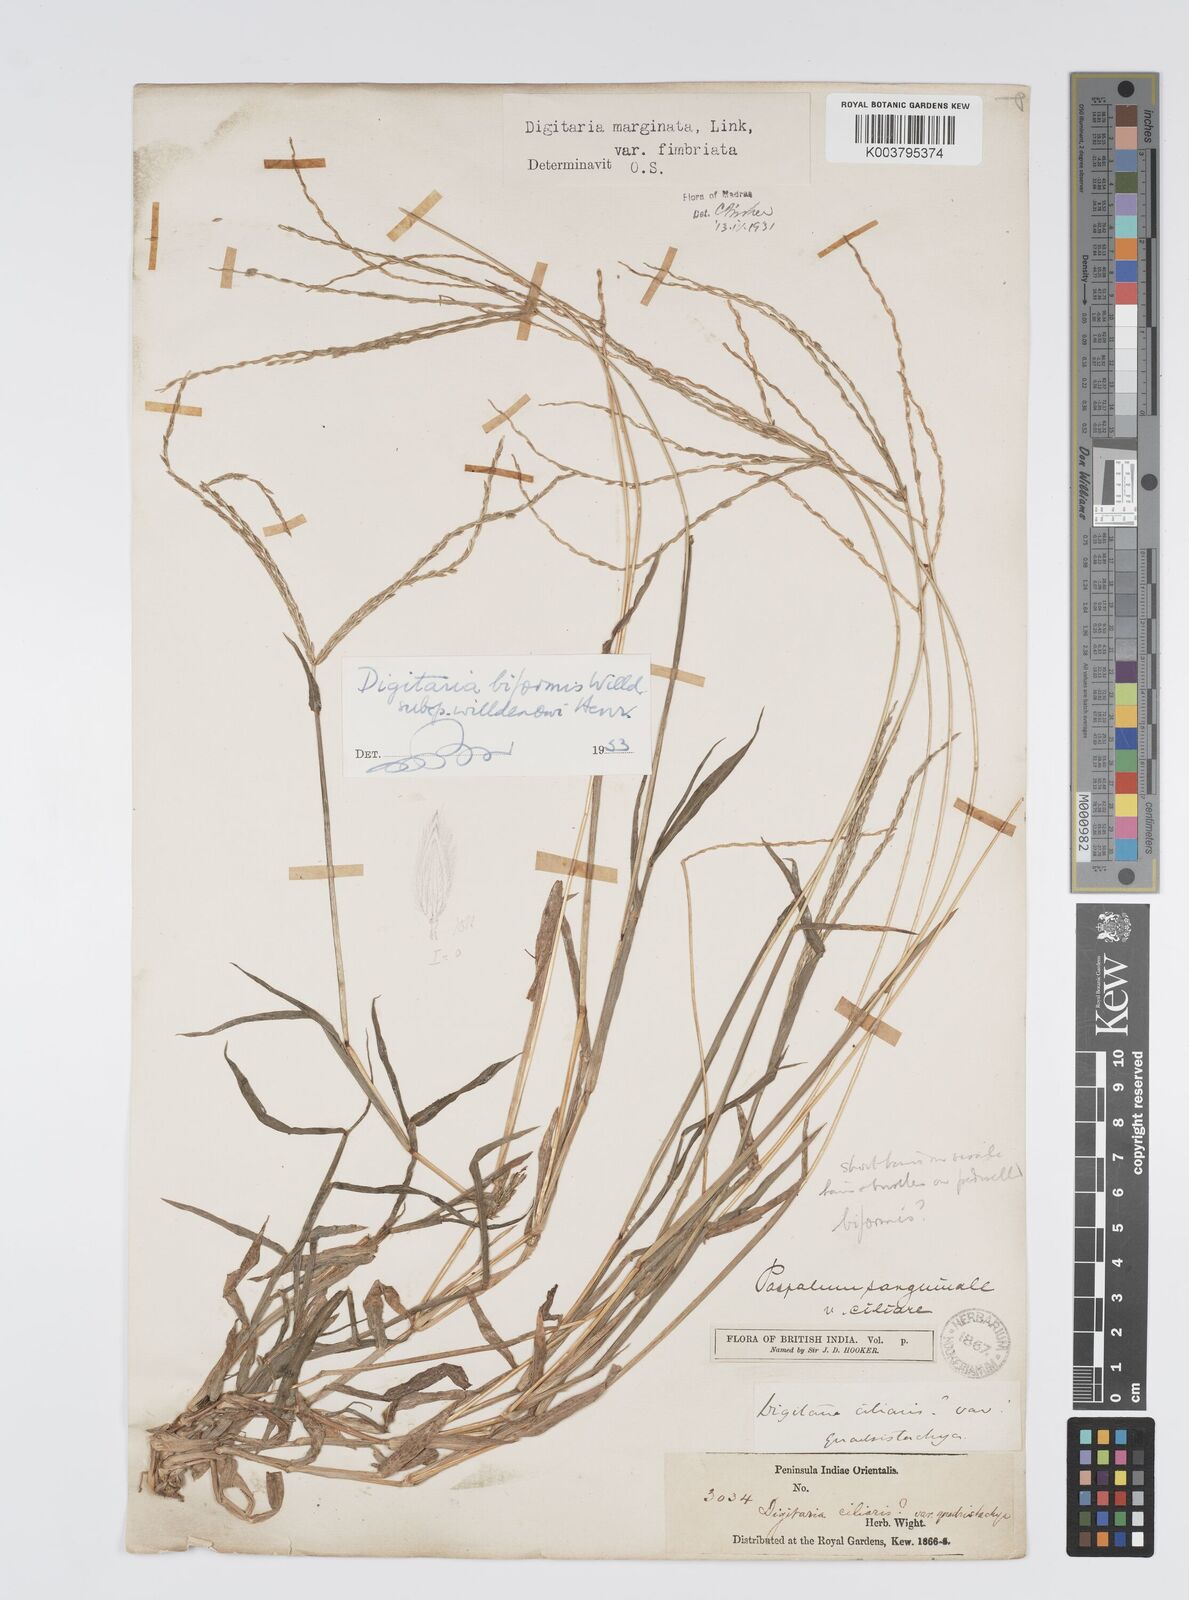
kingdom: Plantae
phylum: Tracheophyta
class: Liliopsida
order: Poales
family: Poaceae
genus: Digitaria
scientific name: Digitaria ciliaris
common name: Tropical finger-grass
